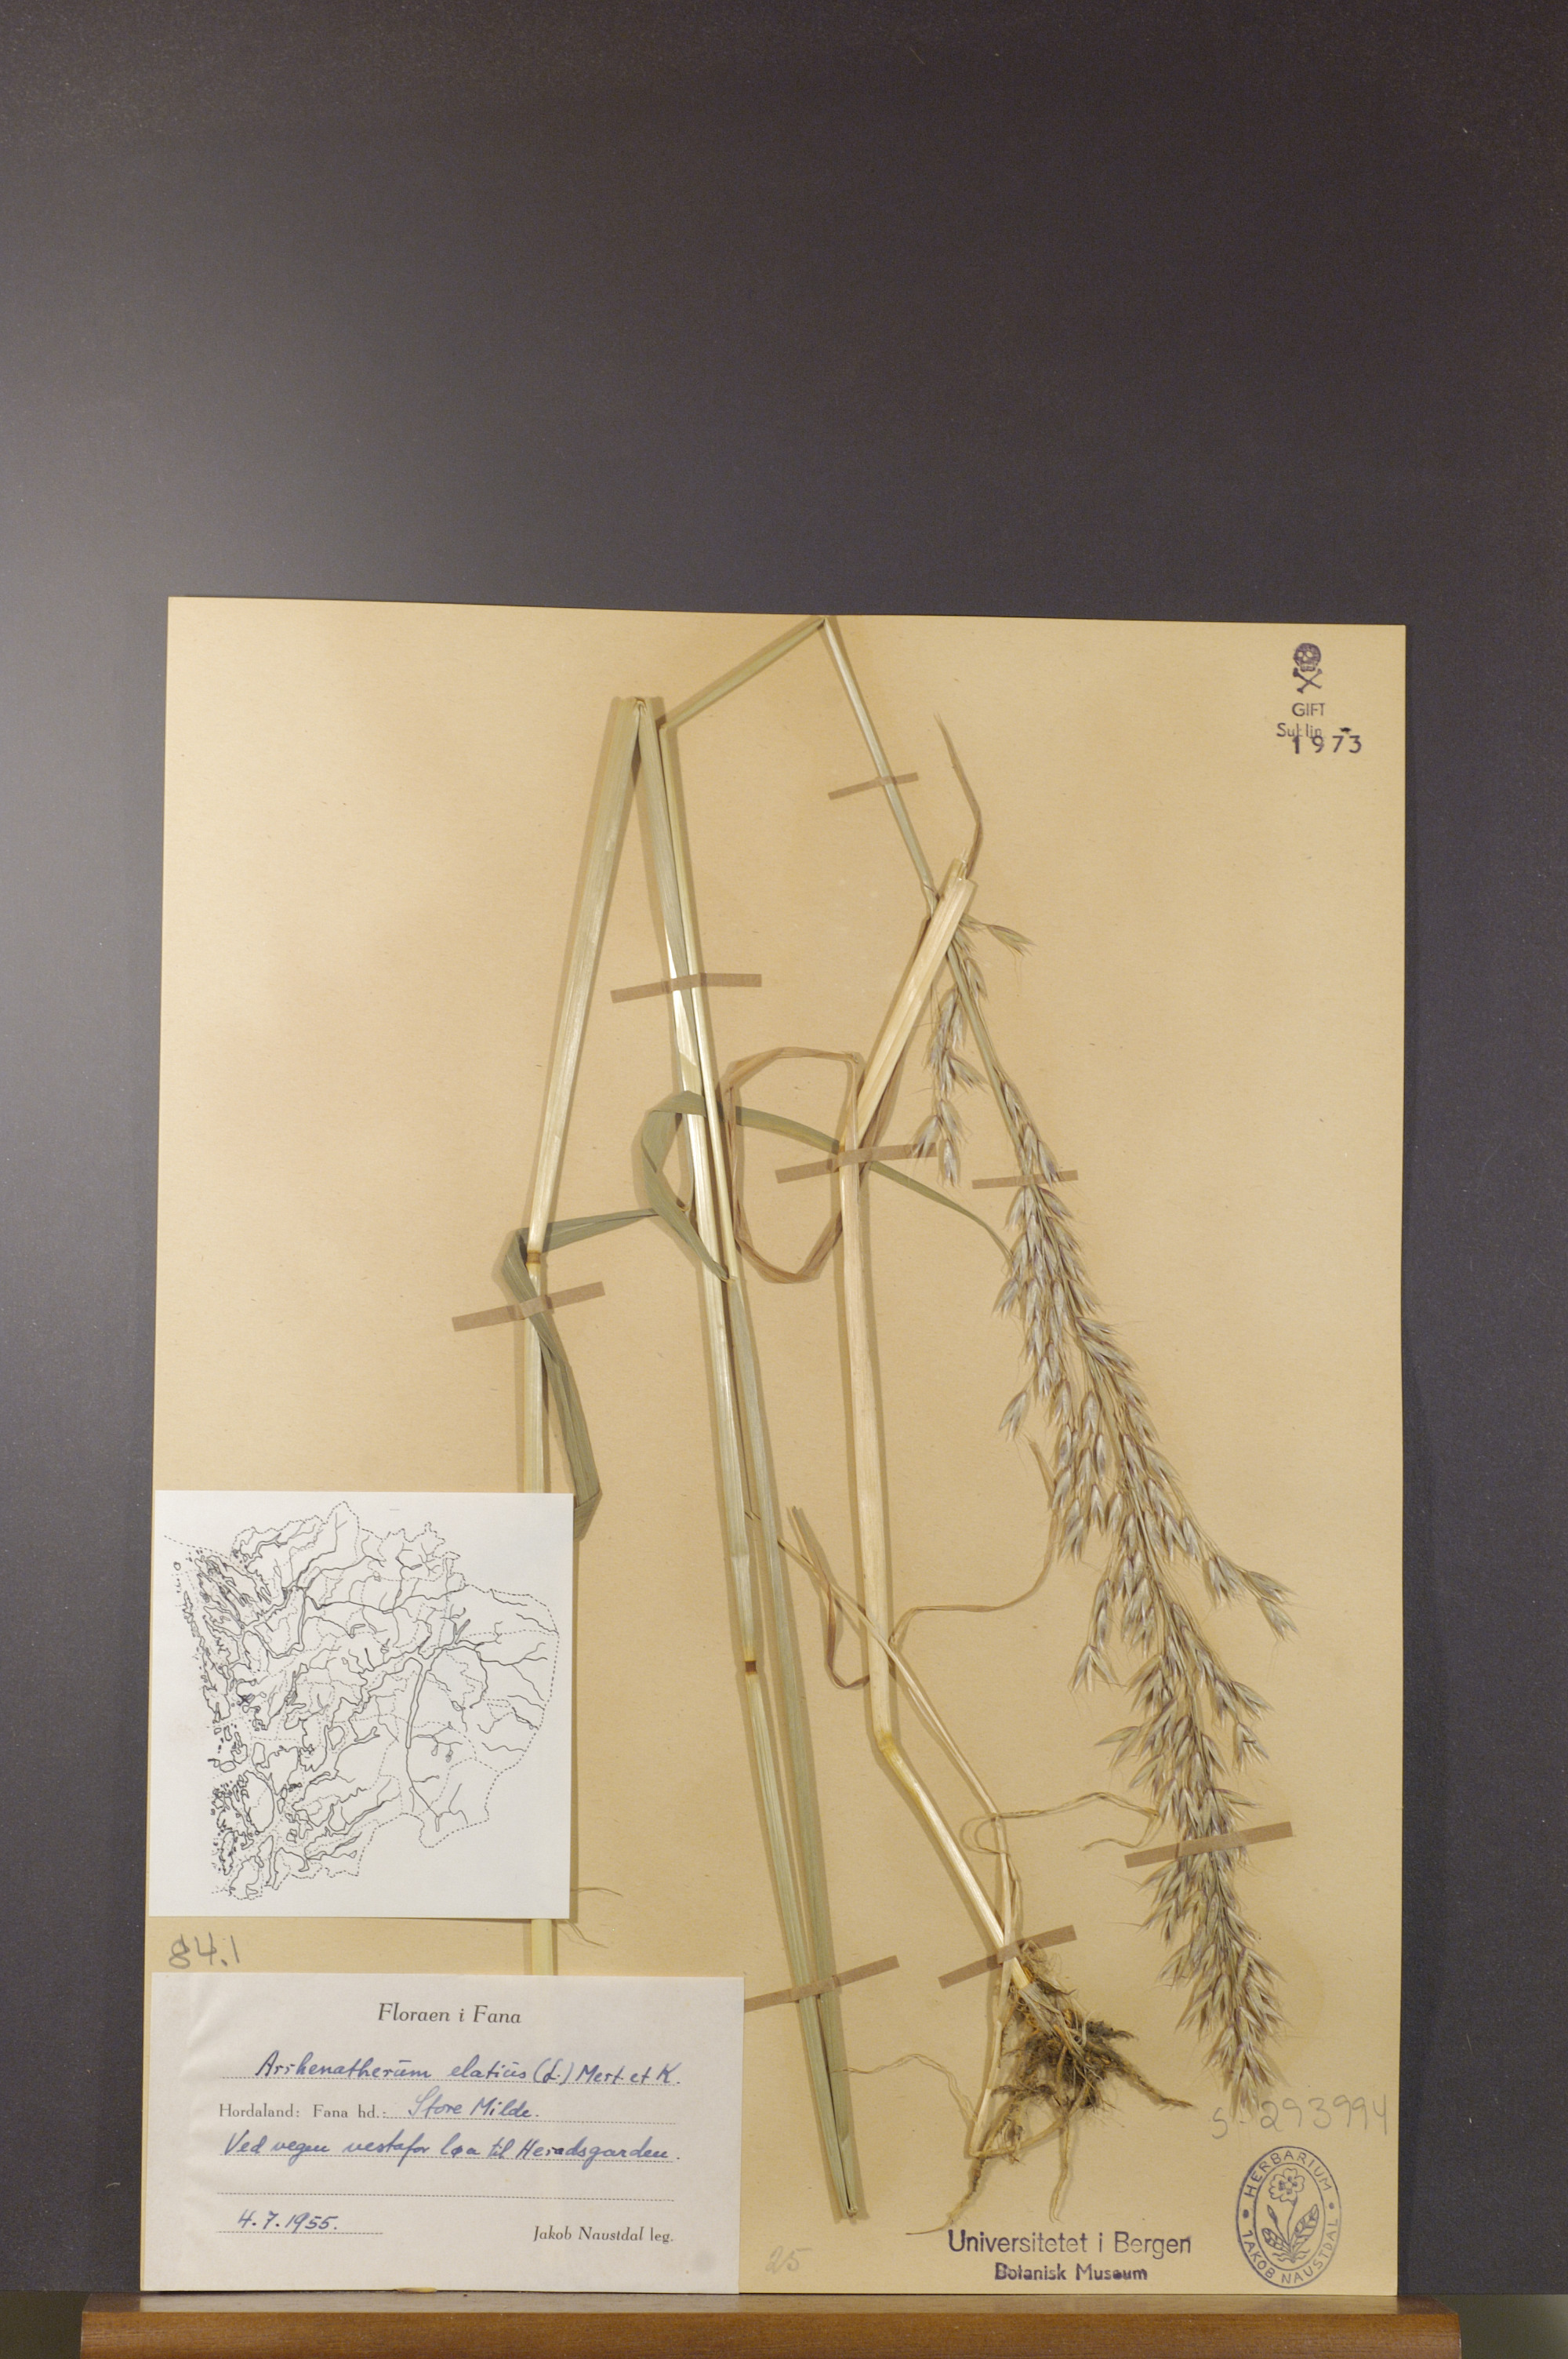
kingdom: Plantae
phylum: Tracheophyta
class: Liliopsida
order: Poales
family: Poaceae
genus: Arrhenatherum
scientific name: Arrhenatherum elatius
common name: Tall oatgrass
